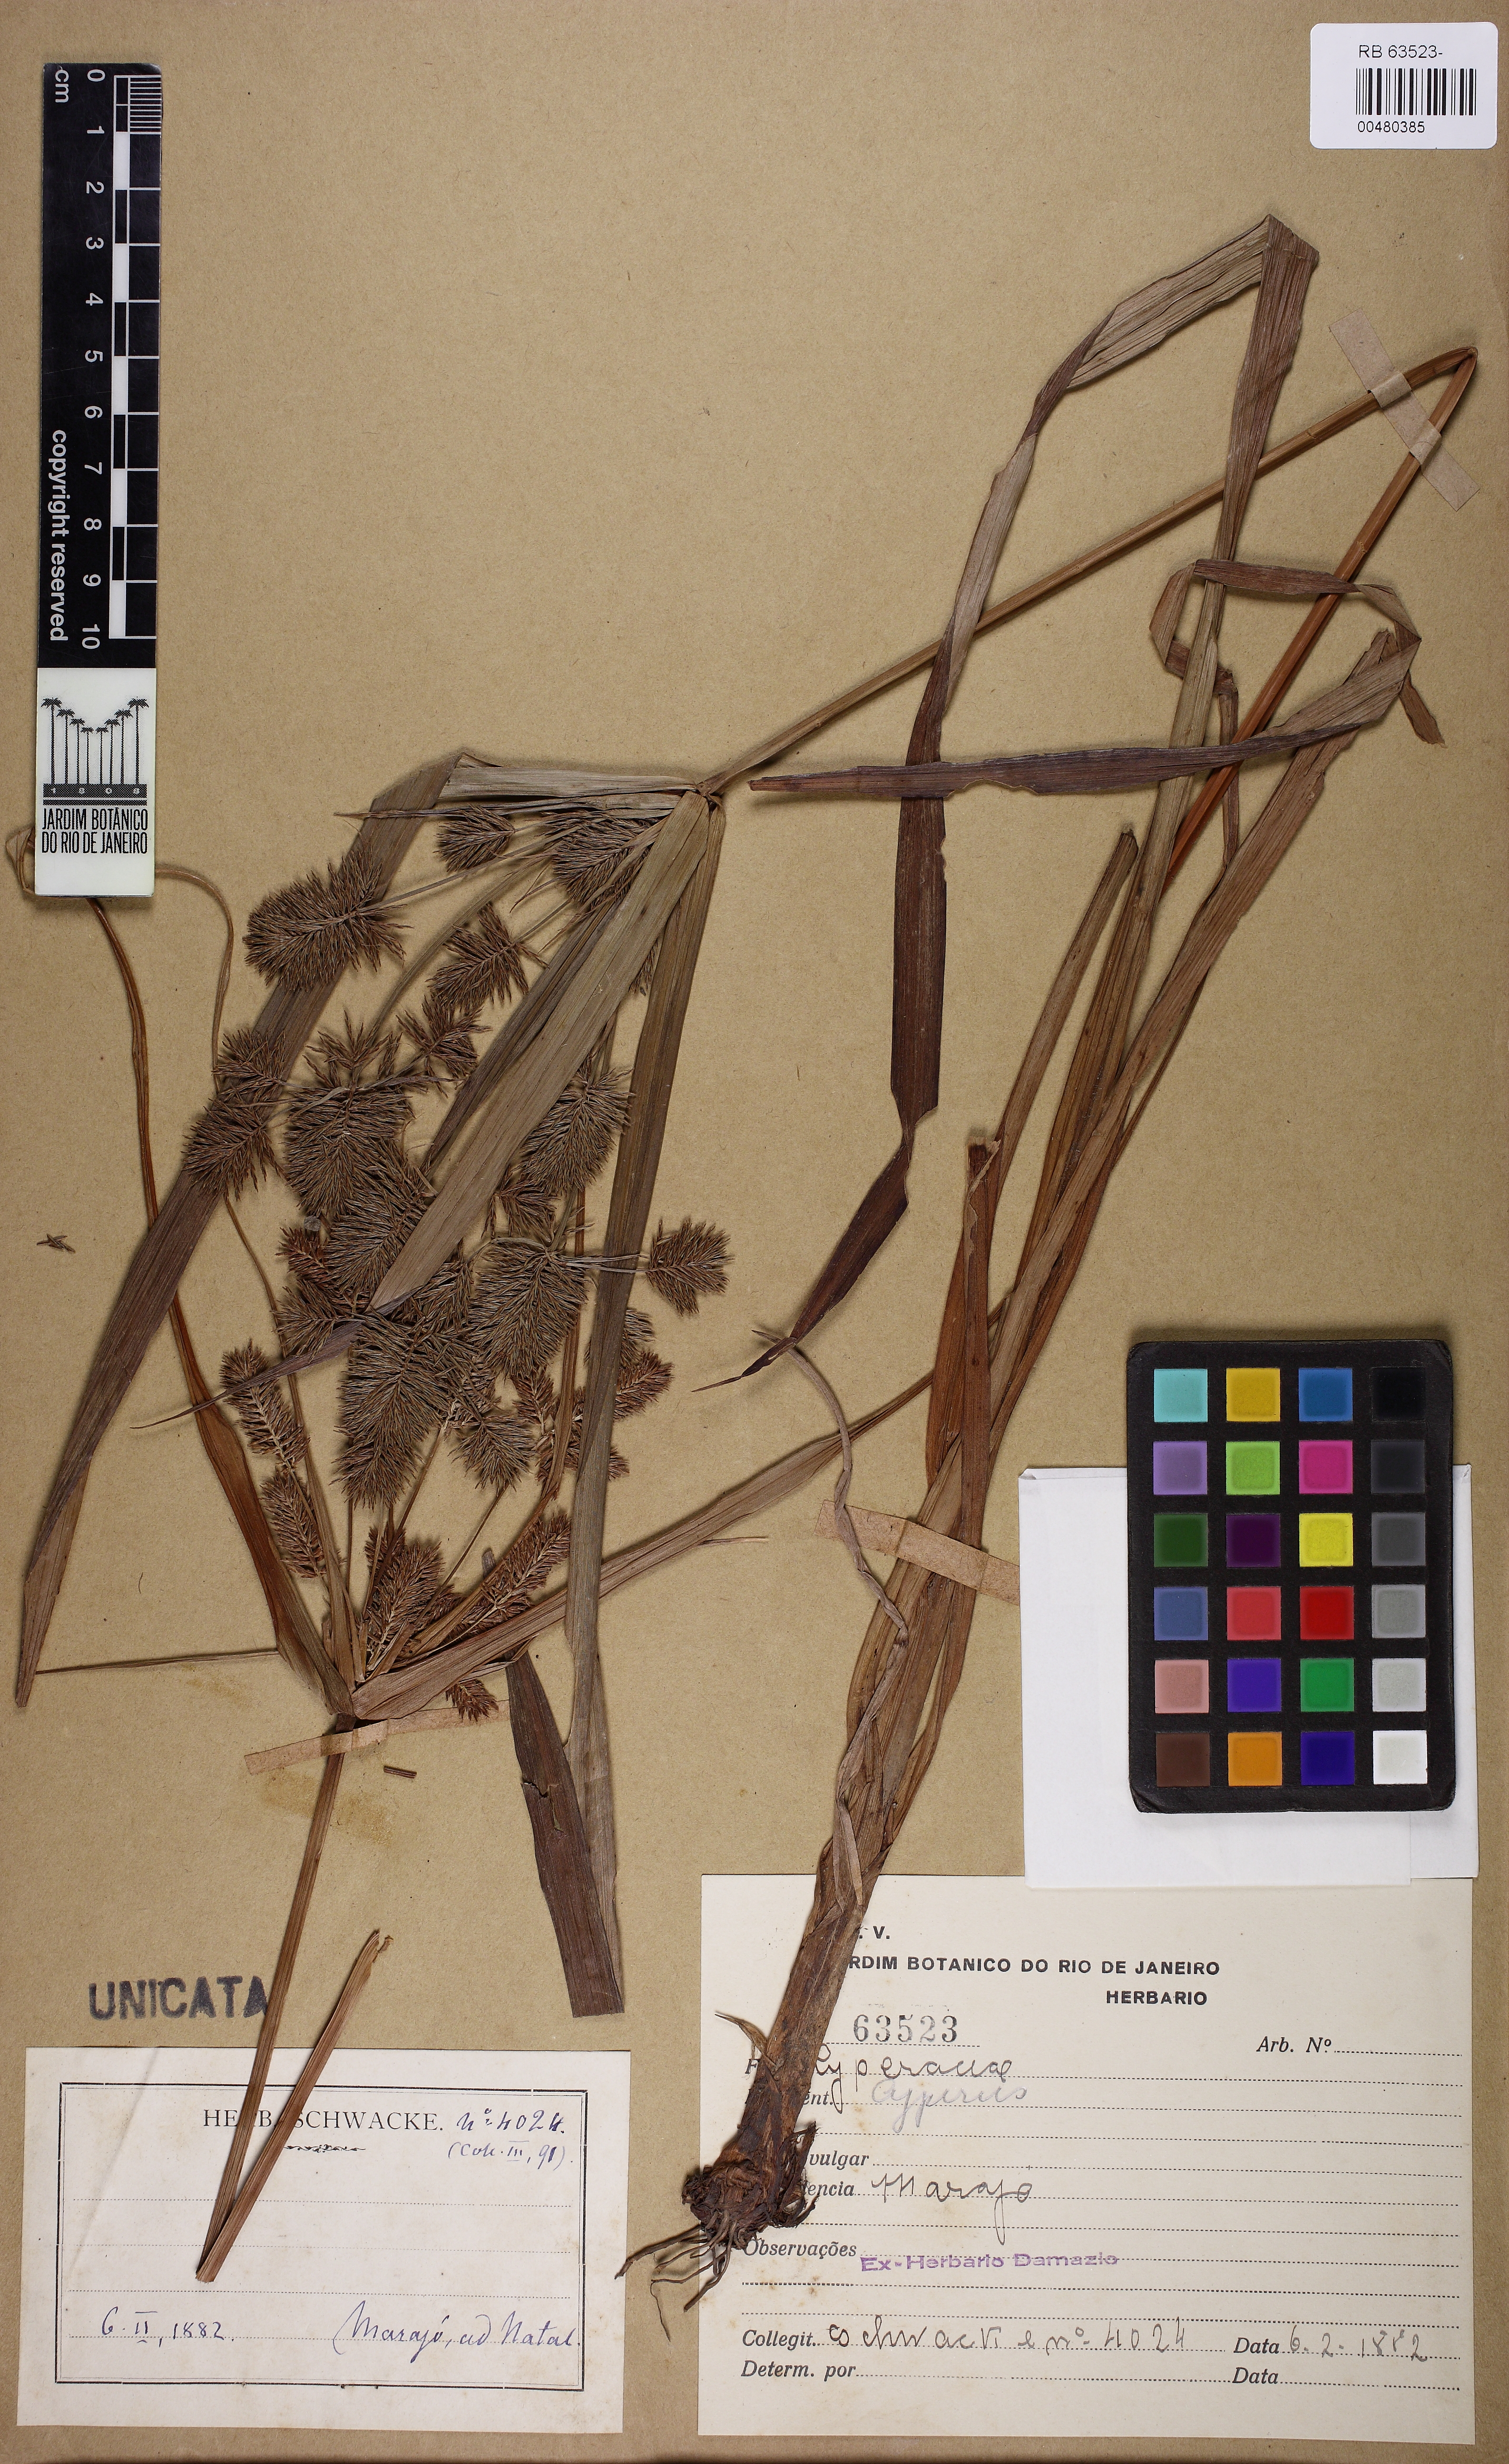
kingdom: Plantae
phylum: Tracheophyta
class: Liliopsida
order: Poales
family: Cyperaceae
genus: Cyperus
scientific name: Cyperus pohlii
